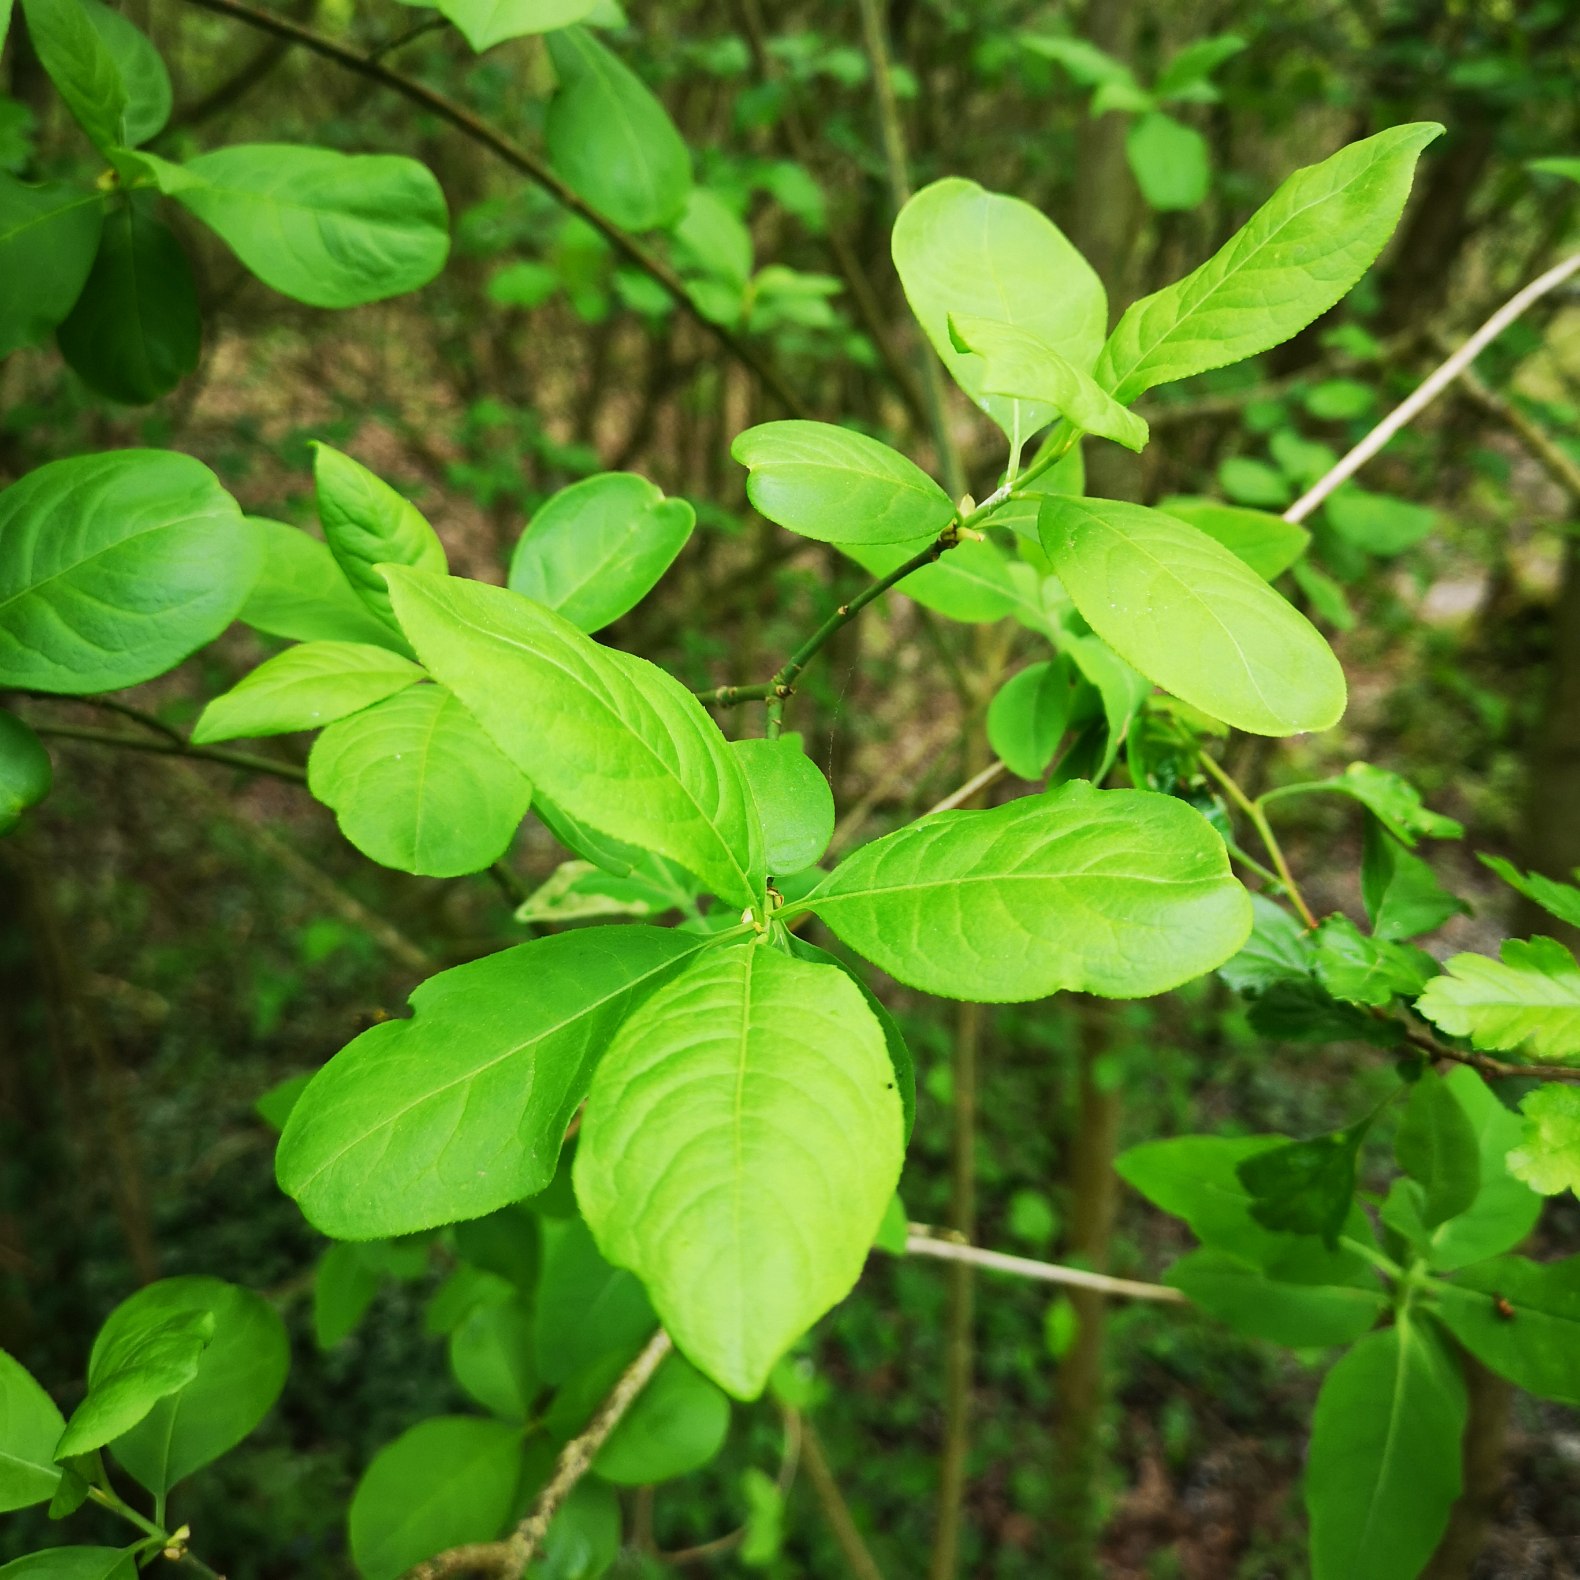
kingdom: Plantae
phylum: Tracheophyta
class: Magnoliopsida
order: Celastrales
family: Celastraceae
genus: Euonymus
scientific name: Euonymus europaeus
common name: Benved
